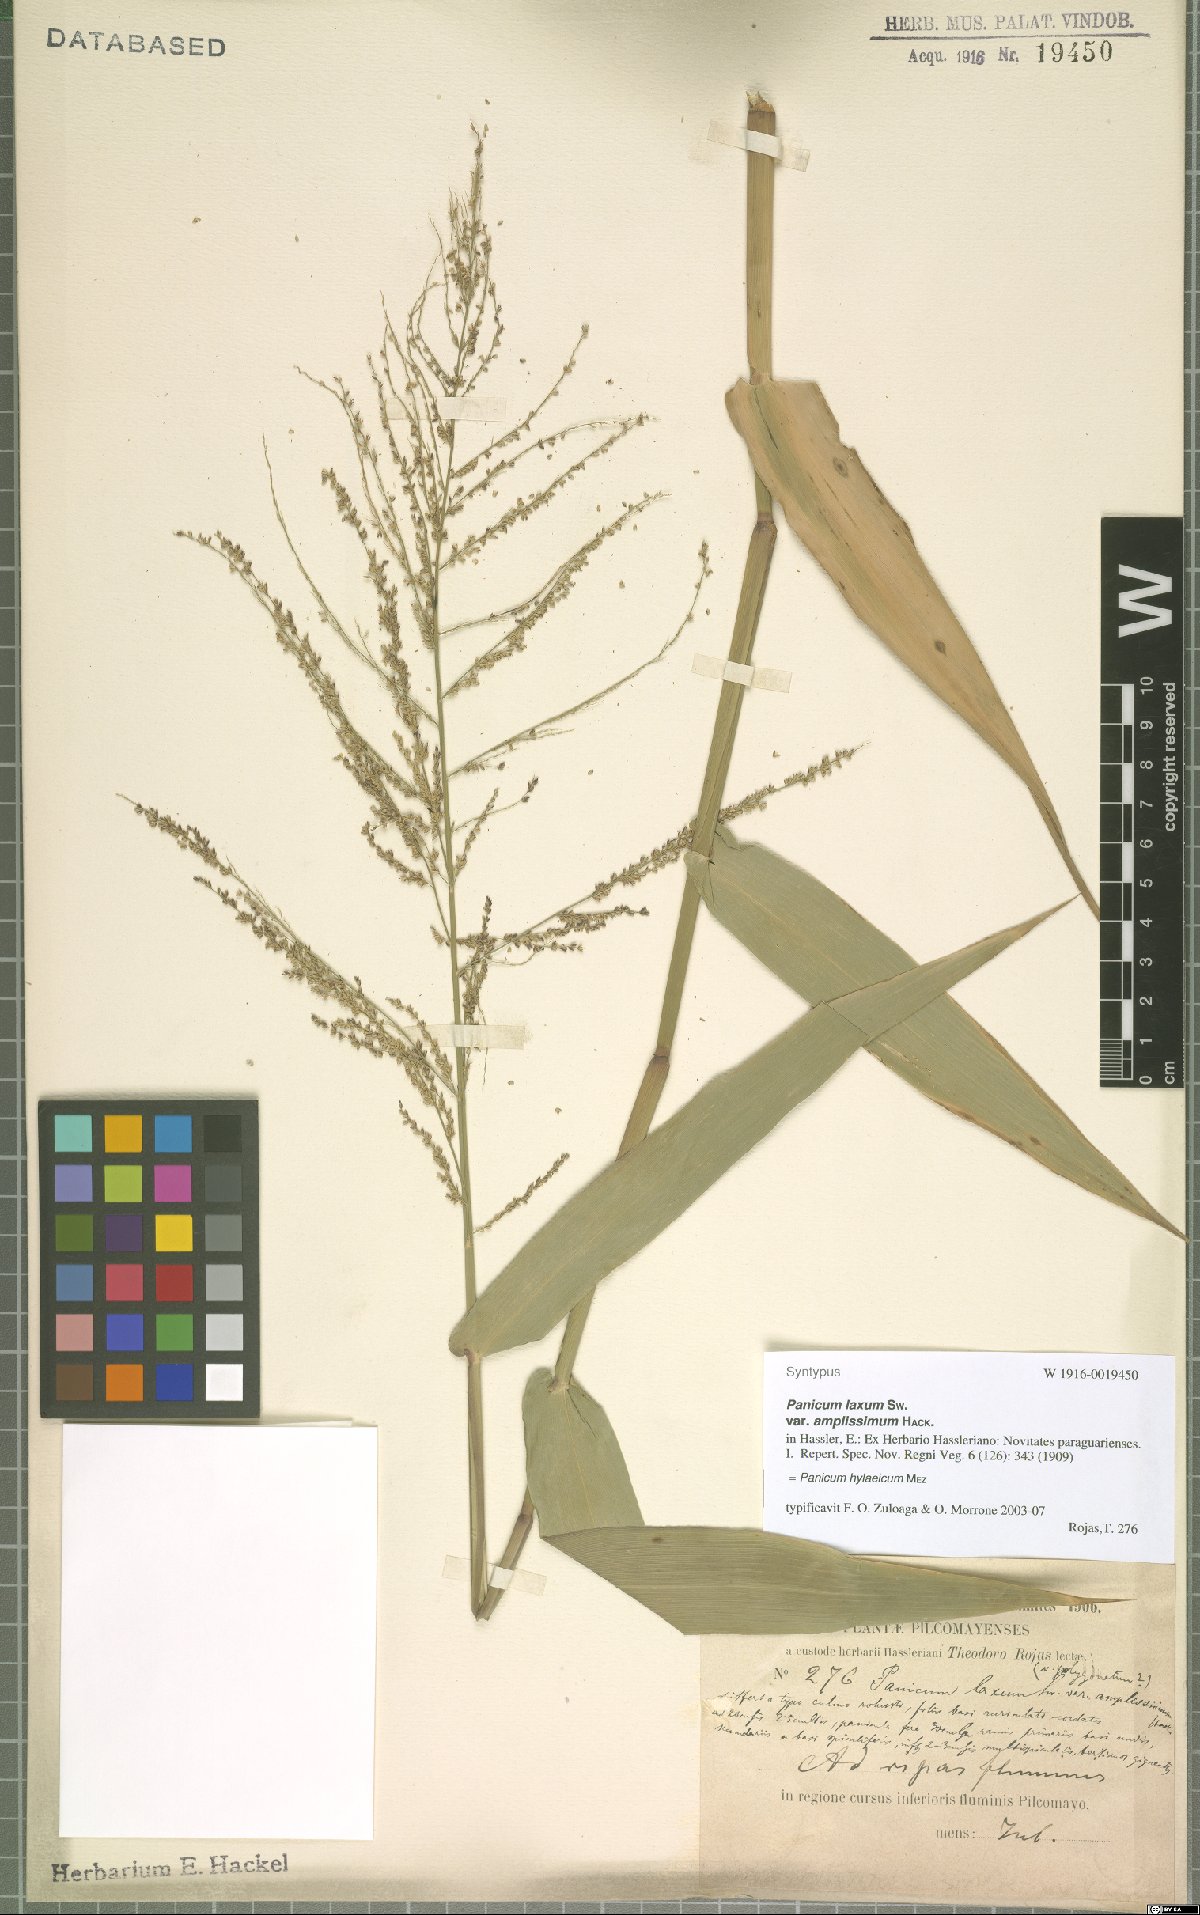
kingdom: Plantae
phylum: Tracheophyta
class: Liliopsida
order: Poales
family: Poaceae
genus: Rugoloa
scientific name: Rugoloa hylaeica
